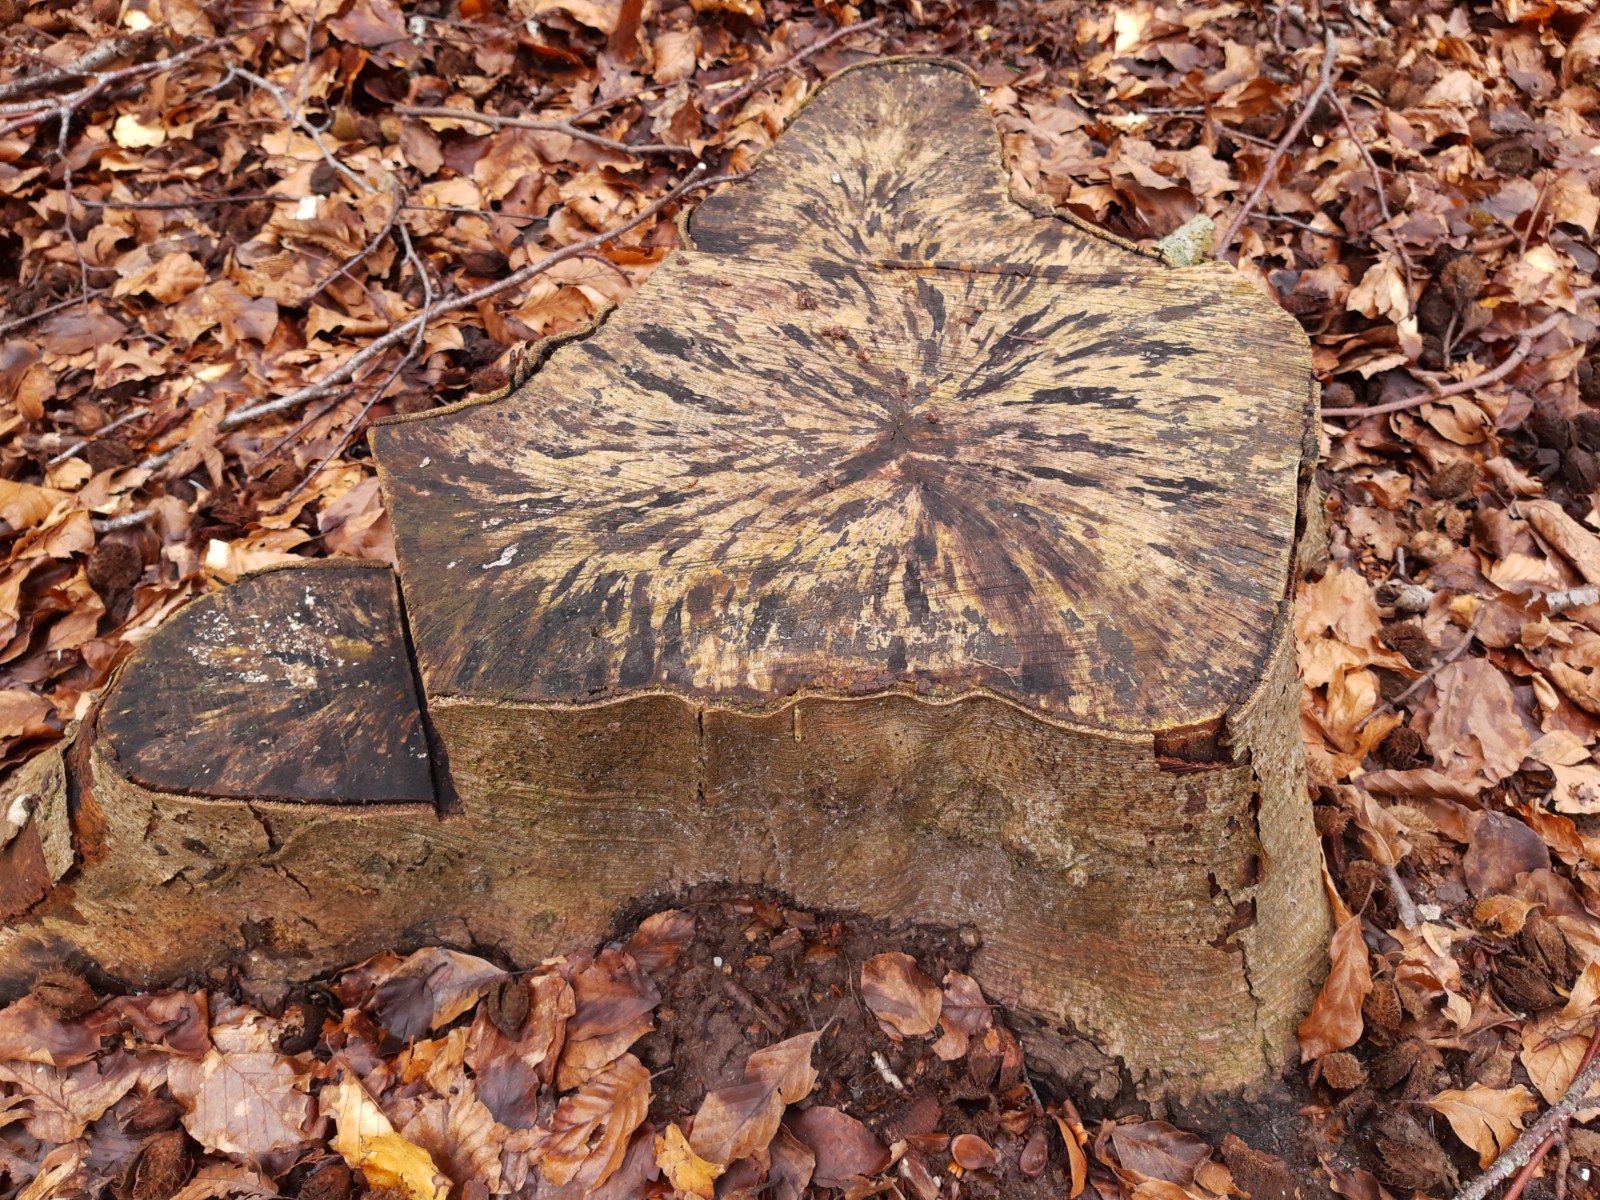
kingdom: Fungi
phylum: Ascomycota
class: Leotiomycetes
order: Helotiales
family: Helotiaceae
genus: Bispora
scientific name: Bispora pallescens
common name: måtte-snitskive
